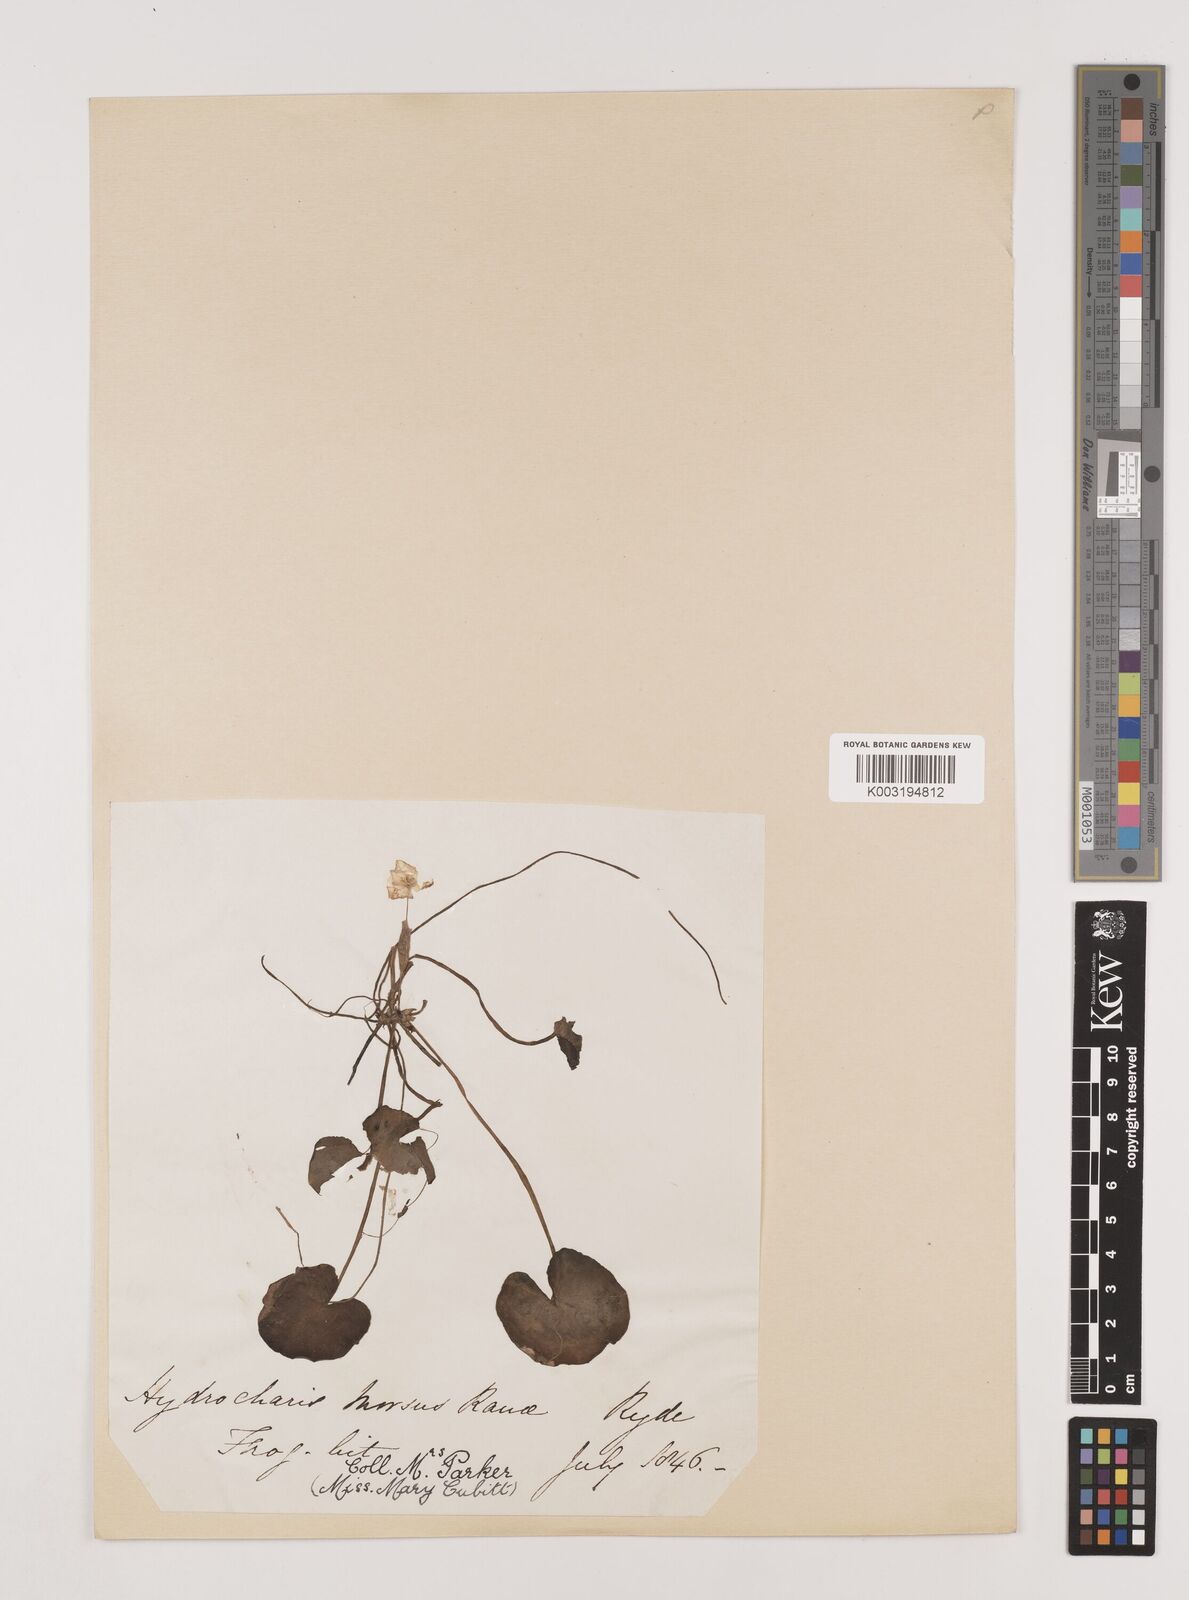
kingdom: Plantae
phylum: Tracheophyta
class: Liliopsida
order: Alismatales
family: Hydrocharitaceae
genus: Hydrocharis
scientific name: Hydrocharis morsus-ranae
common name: Frogbit
